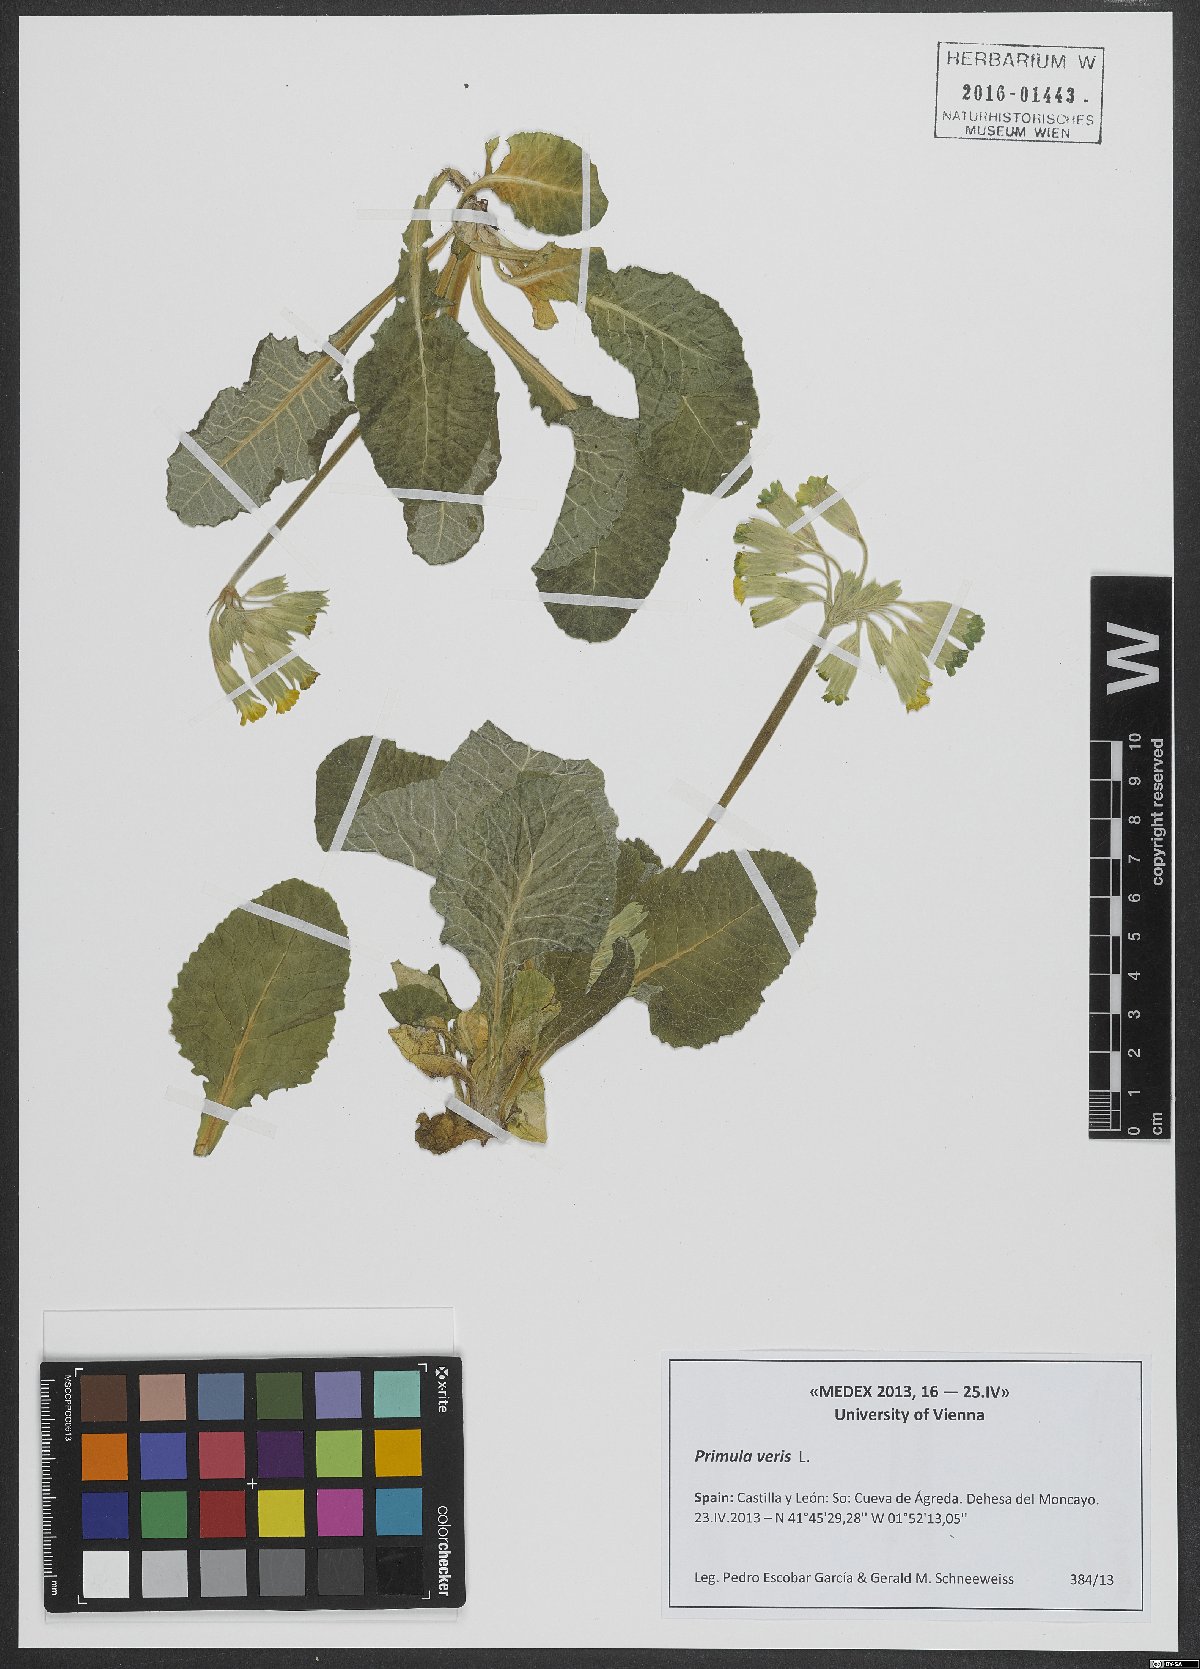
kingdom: Plantae
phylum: Tracheophyta
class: Magnoliopsida
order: Ericales
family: Primulaceae
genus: Primula
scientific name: Primula veris
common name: Cowslip
